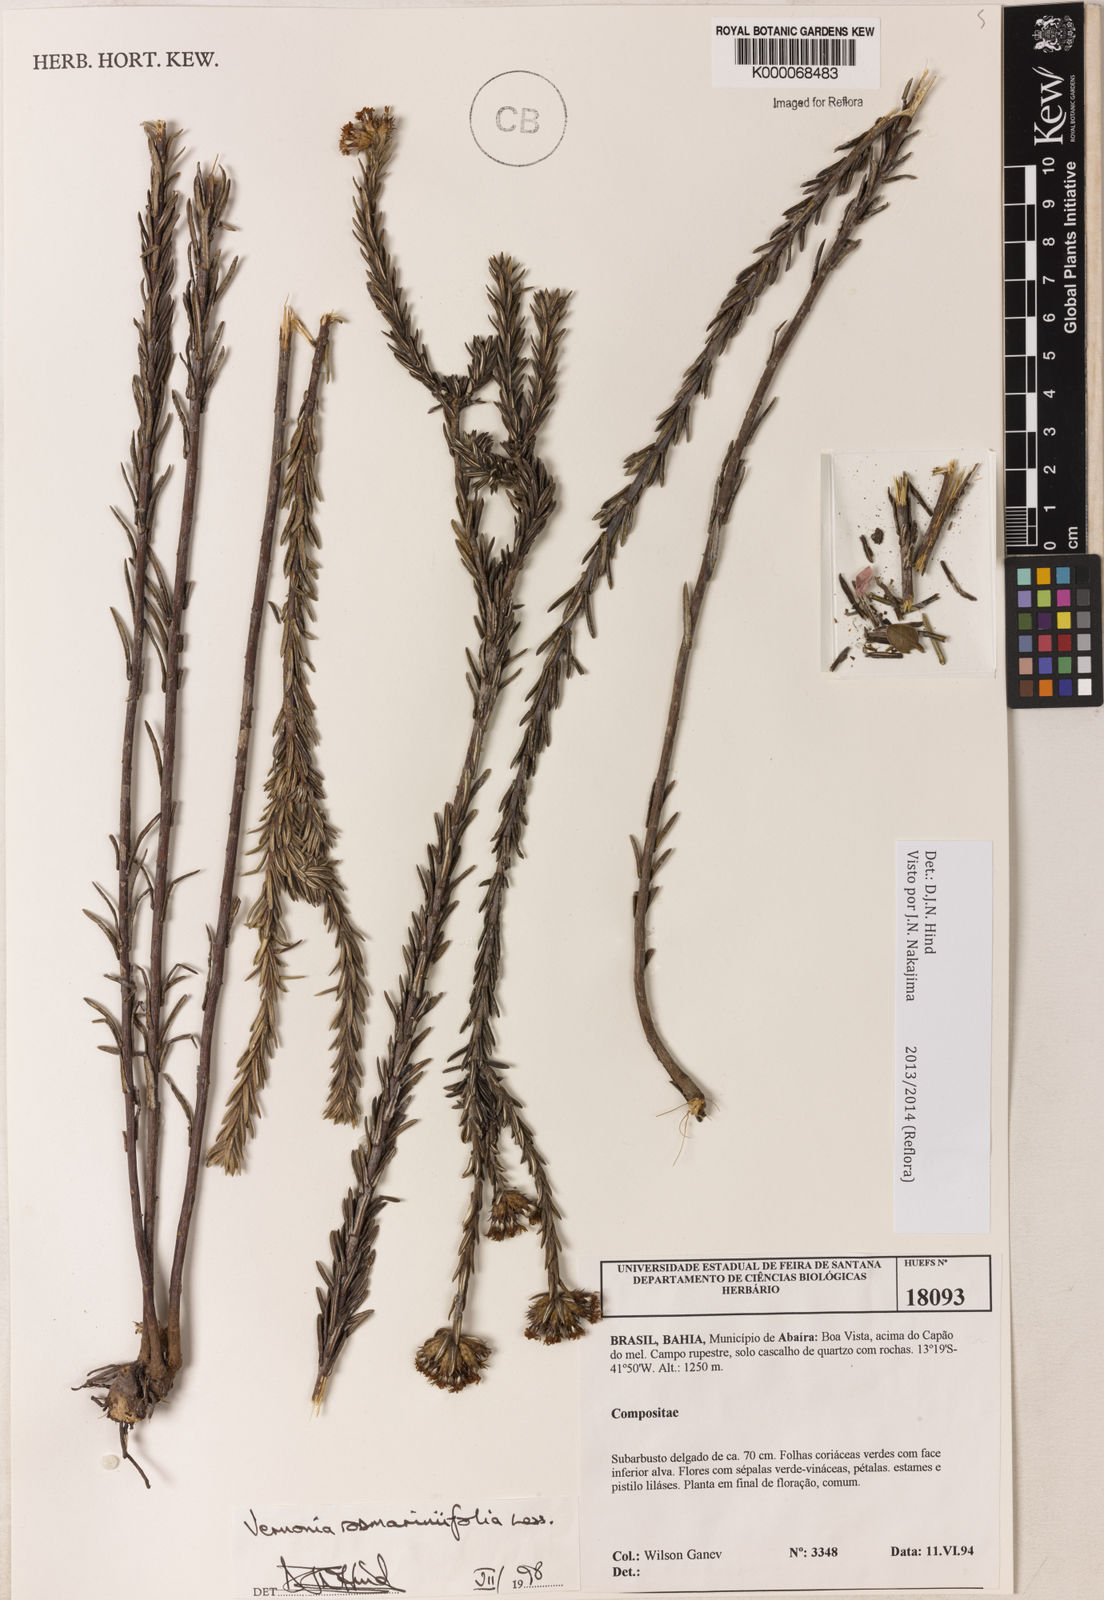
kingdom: Plantae
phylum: Tracheophyta
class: Magnoliopsida
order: Asterales
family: Asteraceae
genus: Lessingianthus
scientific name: Lessingianthus rosmarinifolius
